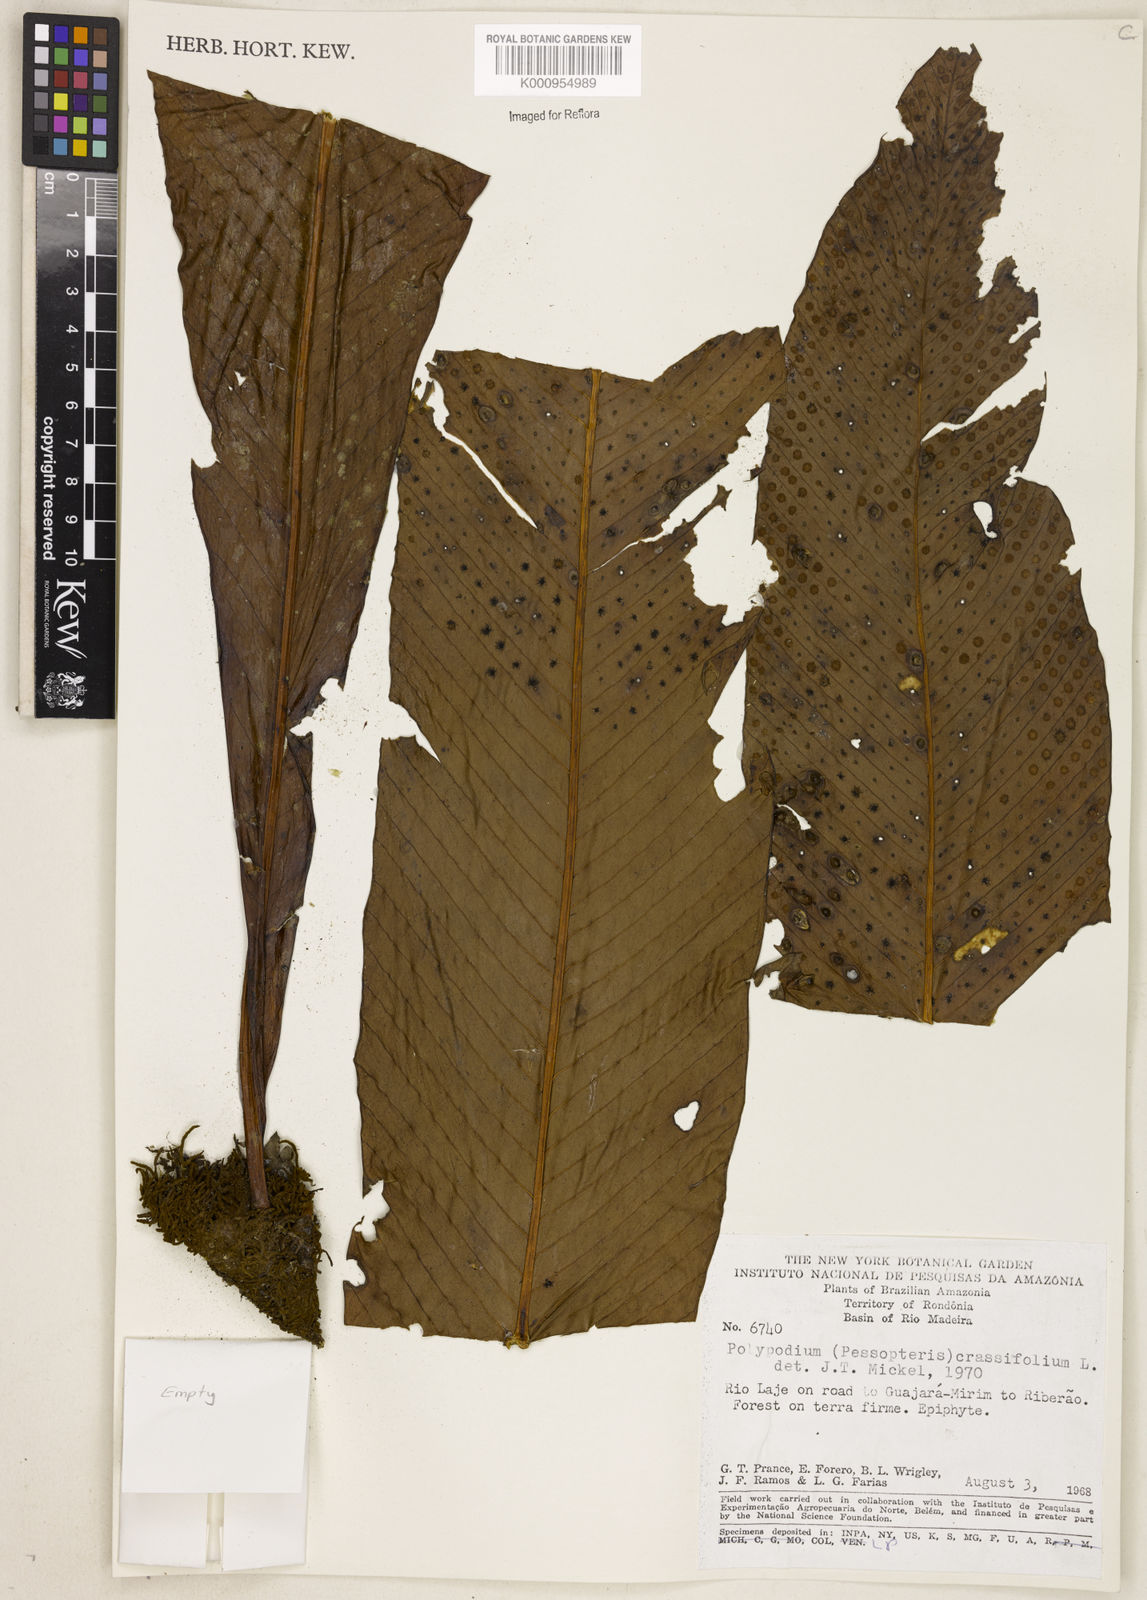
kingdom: Plantae
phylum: Tracheophyta
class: Polypodiopsida
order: Polypodiales
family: Polypodiaceae
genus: Niphidium
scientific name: Niphidium crassifolium
